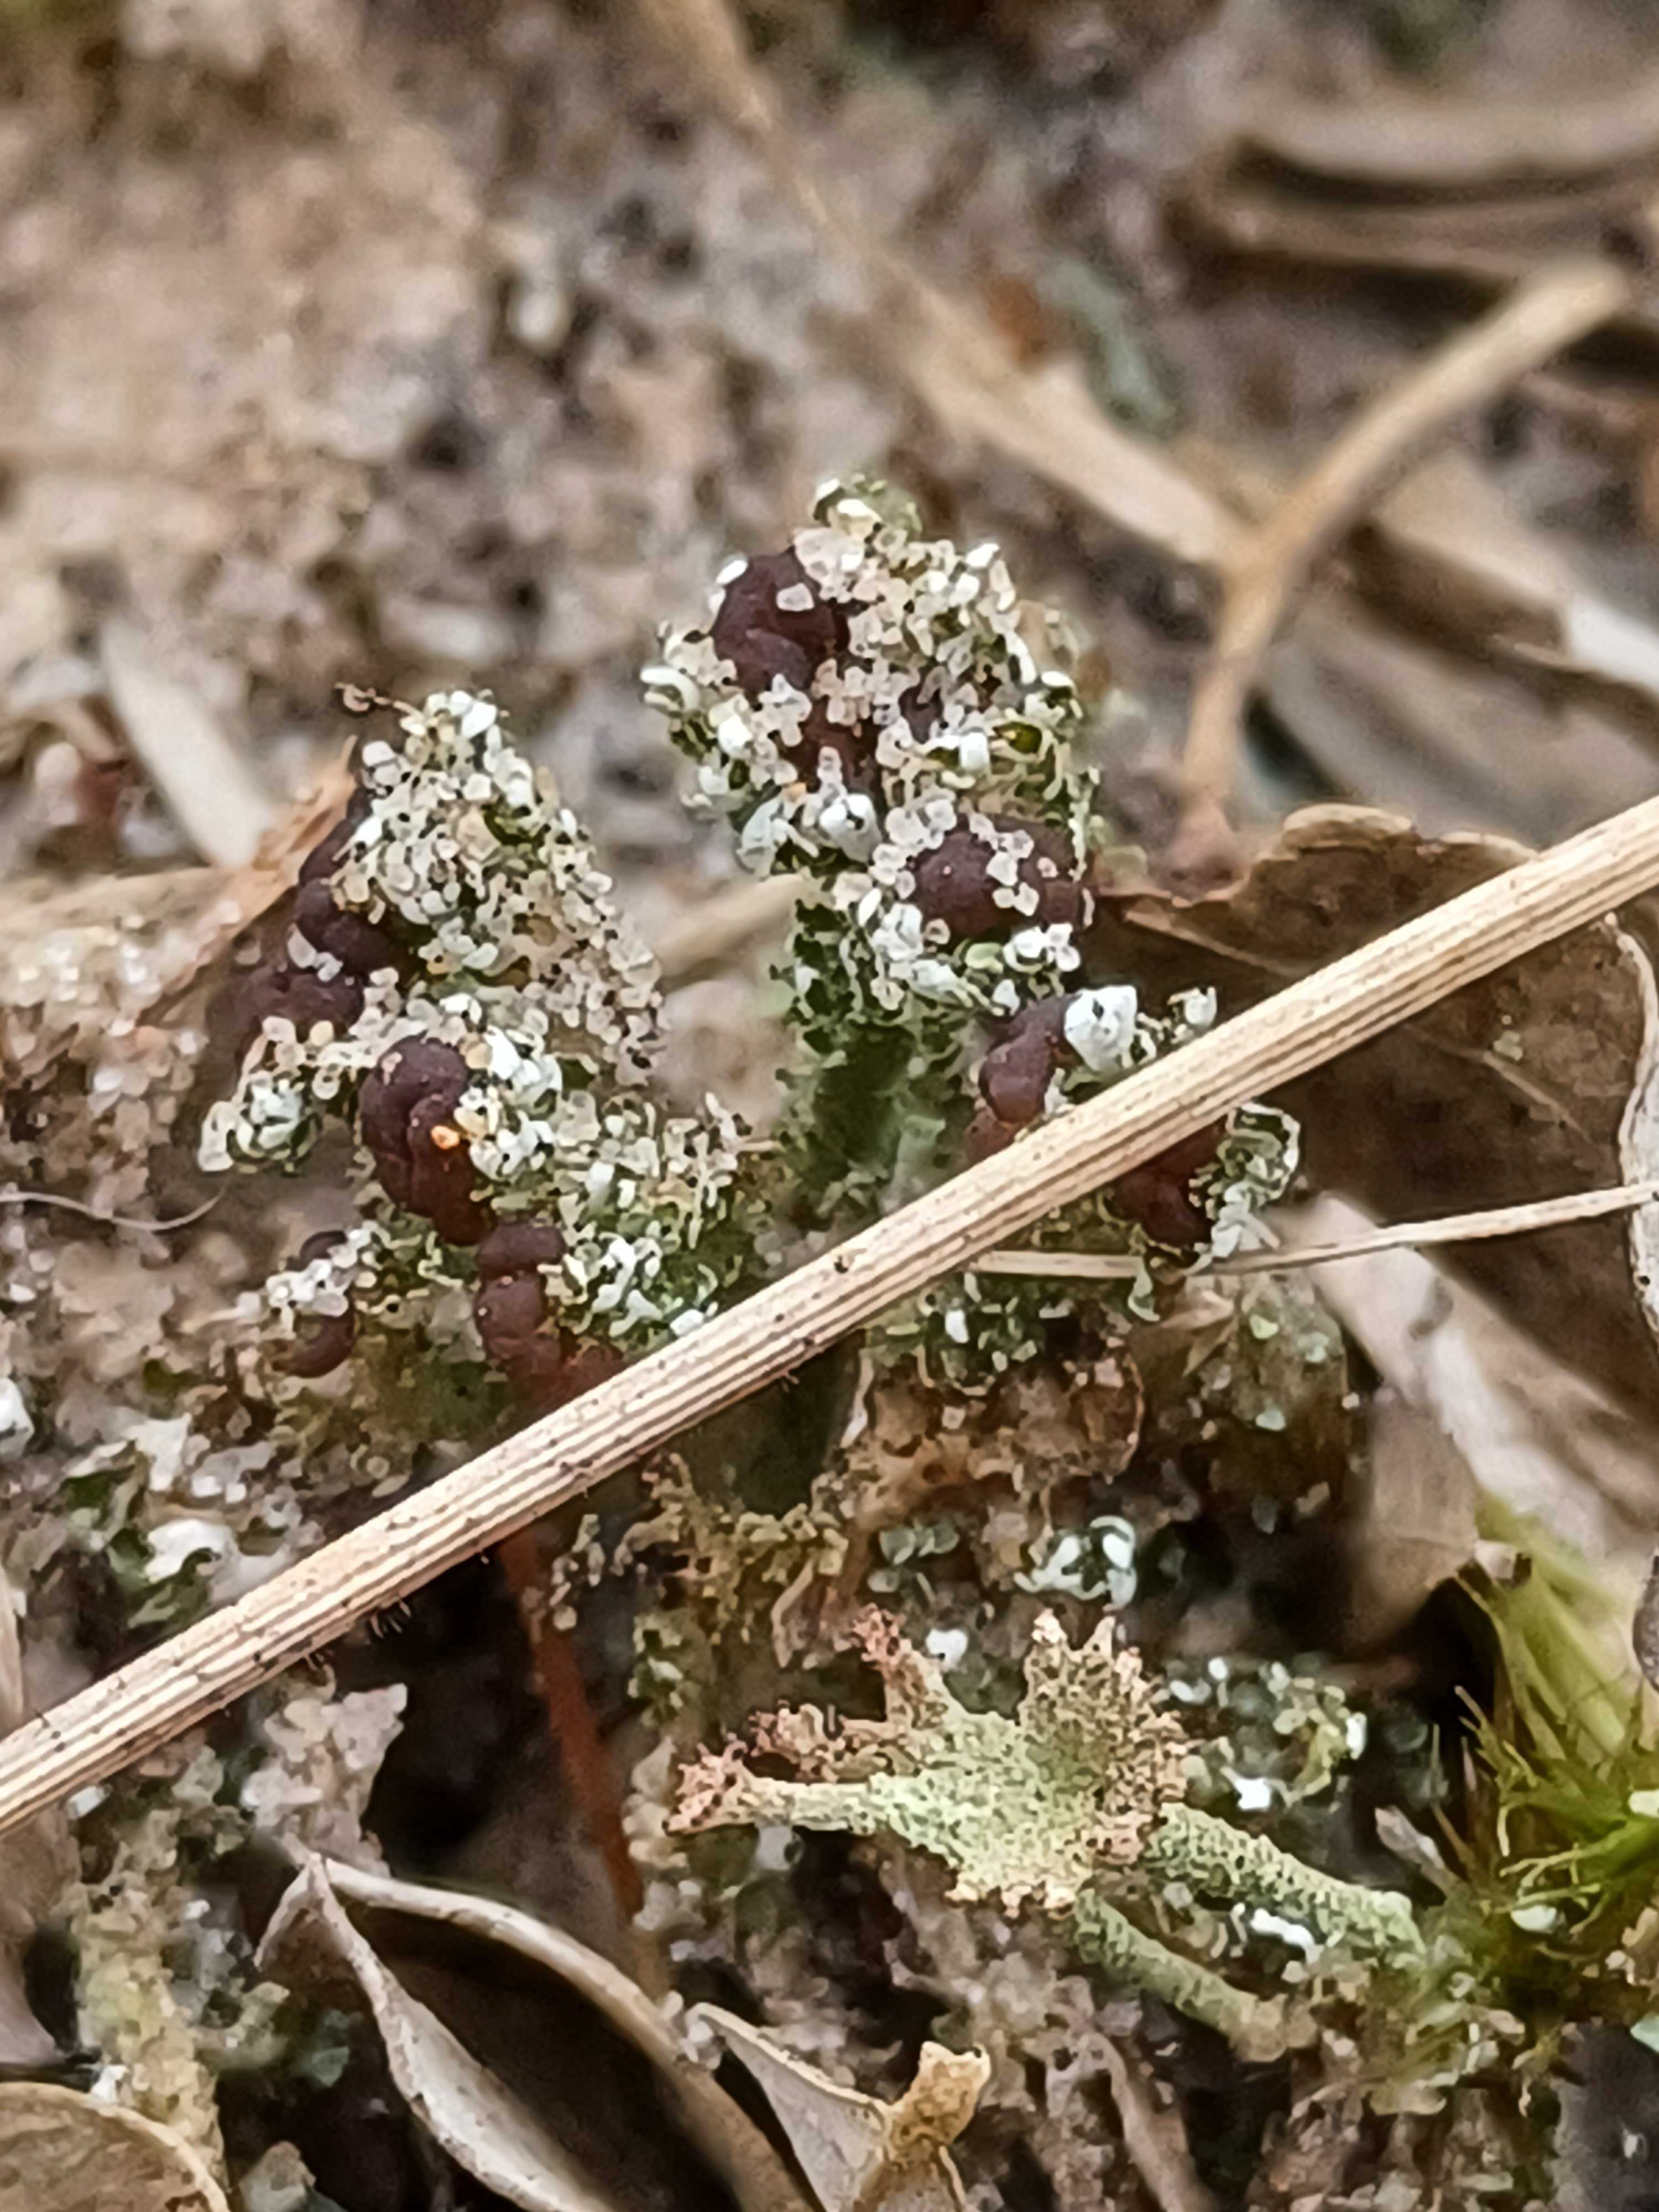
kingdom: Fungi
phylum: Ascomycota
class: Lecanoromycetes
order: Lecanorales
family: Cladoniaceae
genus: Cladonia
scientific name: Cladonia
